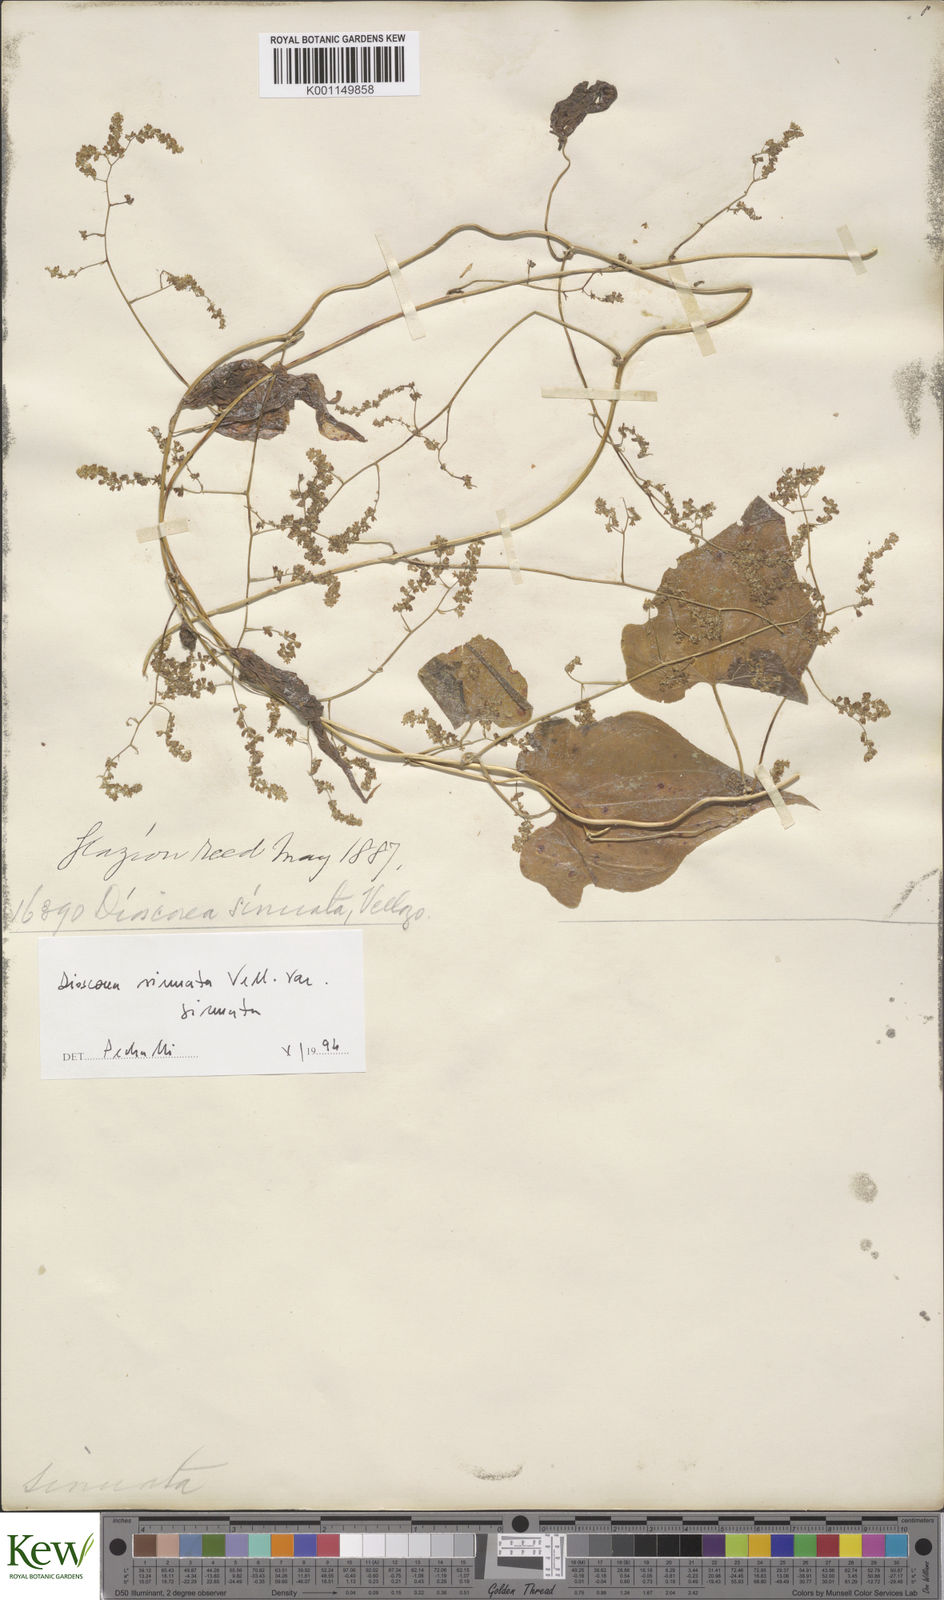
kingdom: Plantae
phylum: Tracheophyta
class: Liliopsida
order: Dioscoreales
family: Dioscoreaceae
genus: Dioscorea
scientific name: Dioscorea sinuata
